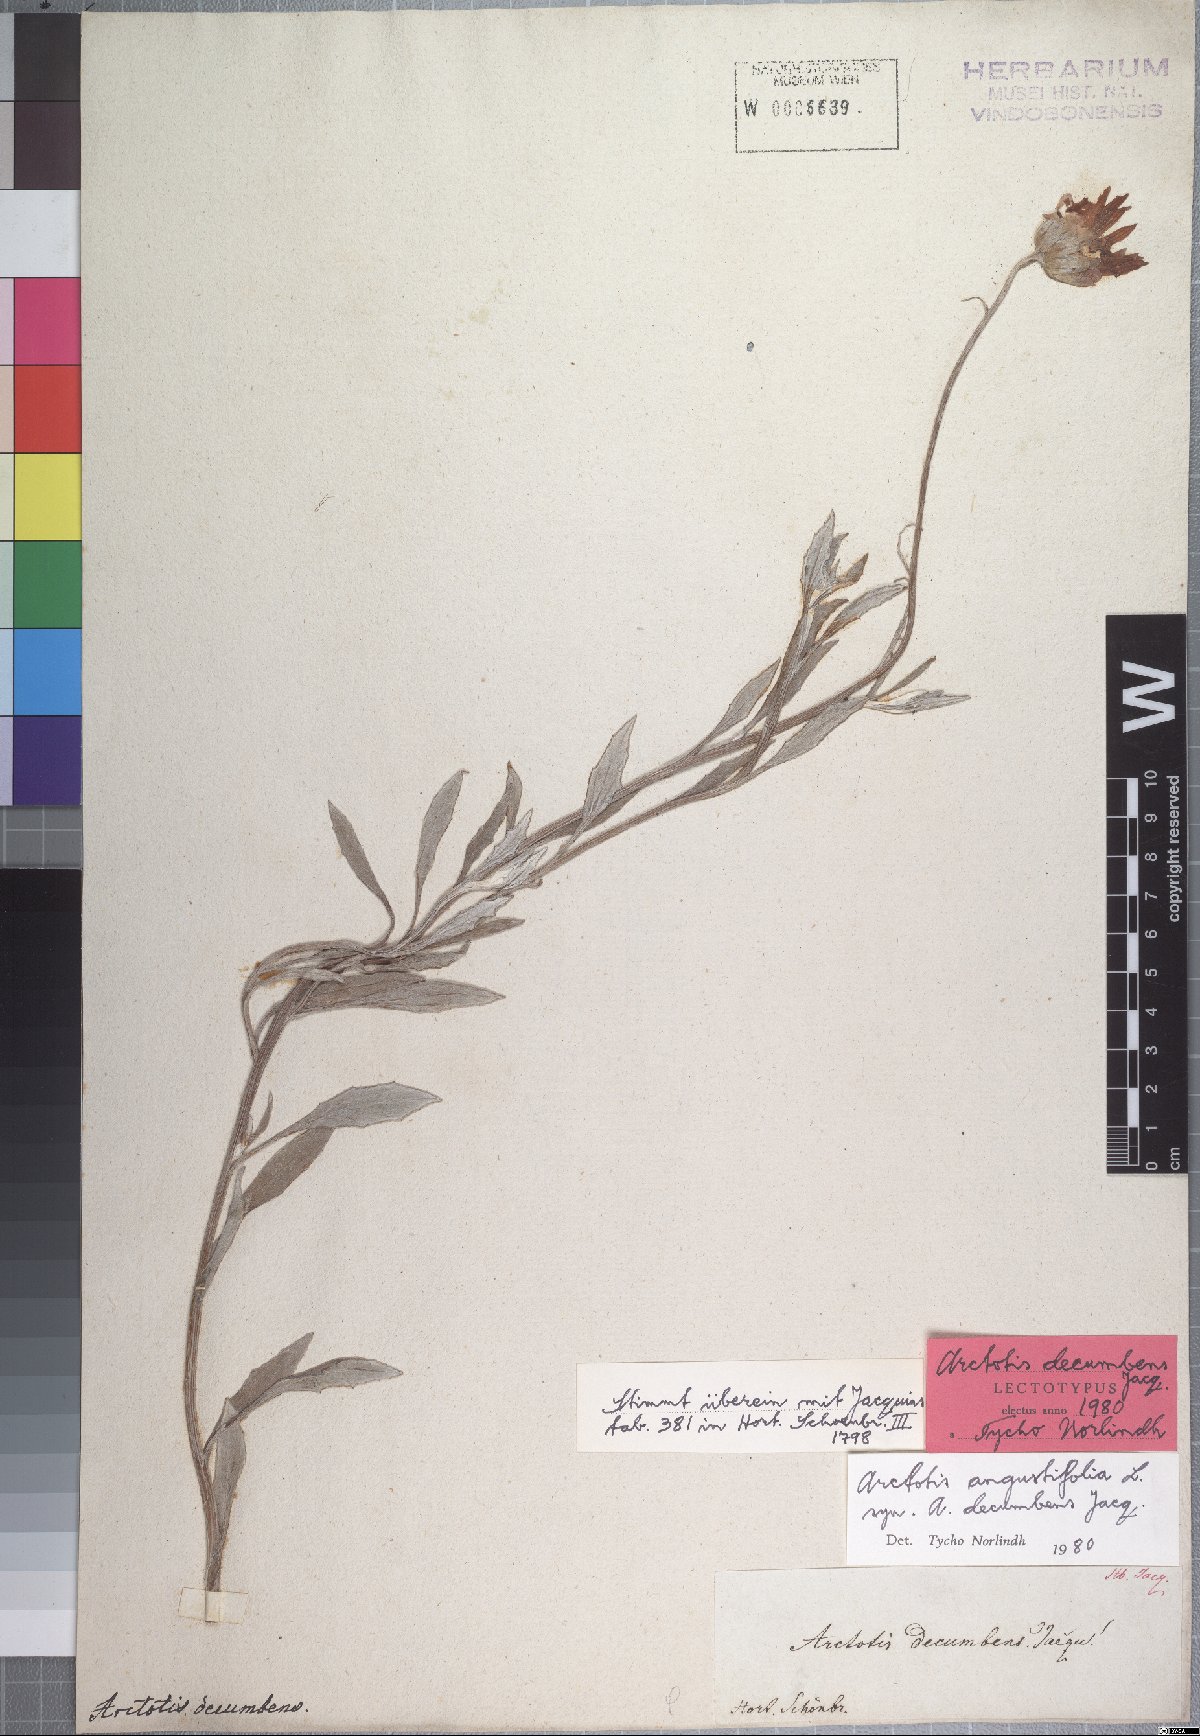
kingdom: Plantae
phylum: Tracheophyta
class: Magnoliopsida
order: Asterales
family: Asteraceae
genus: Arctotis
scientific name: Arctotis angustifolia
